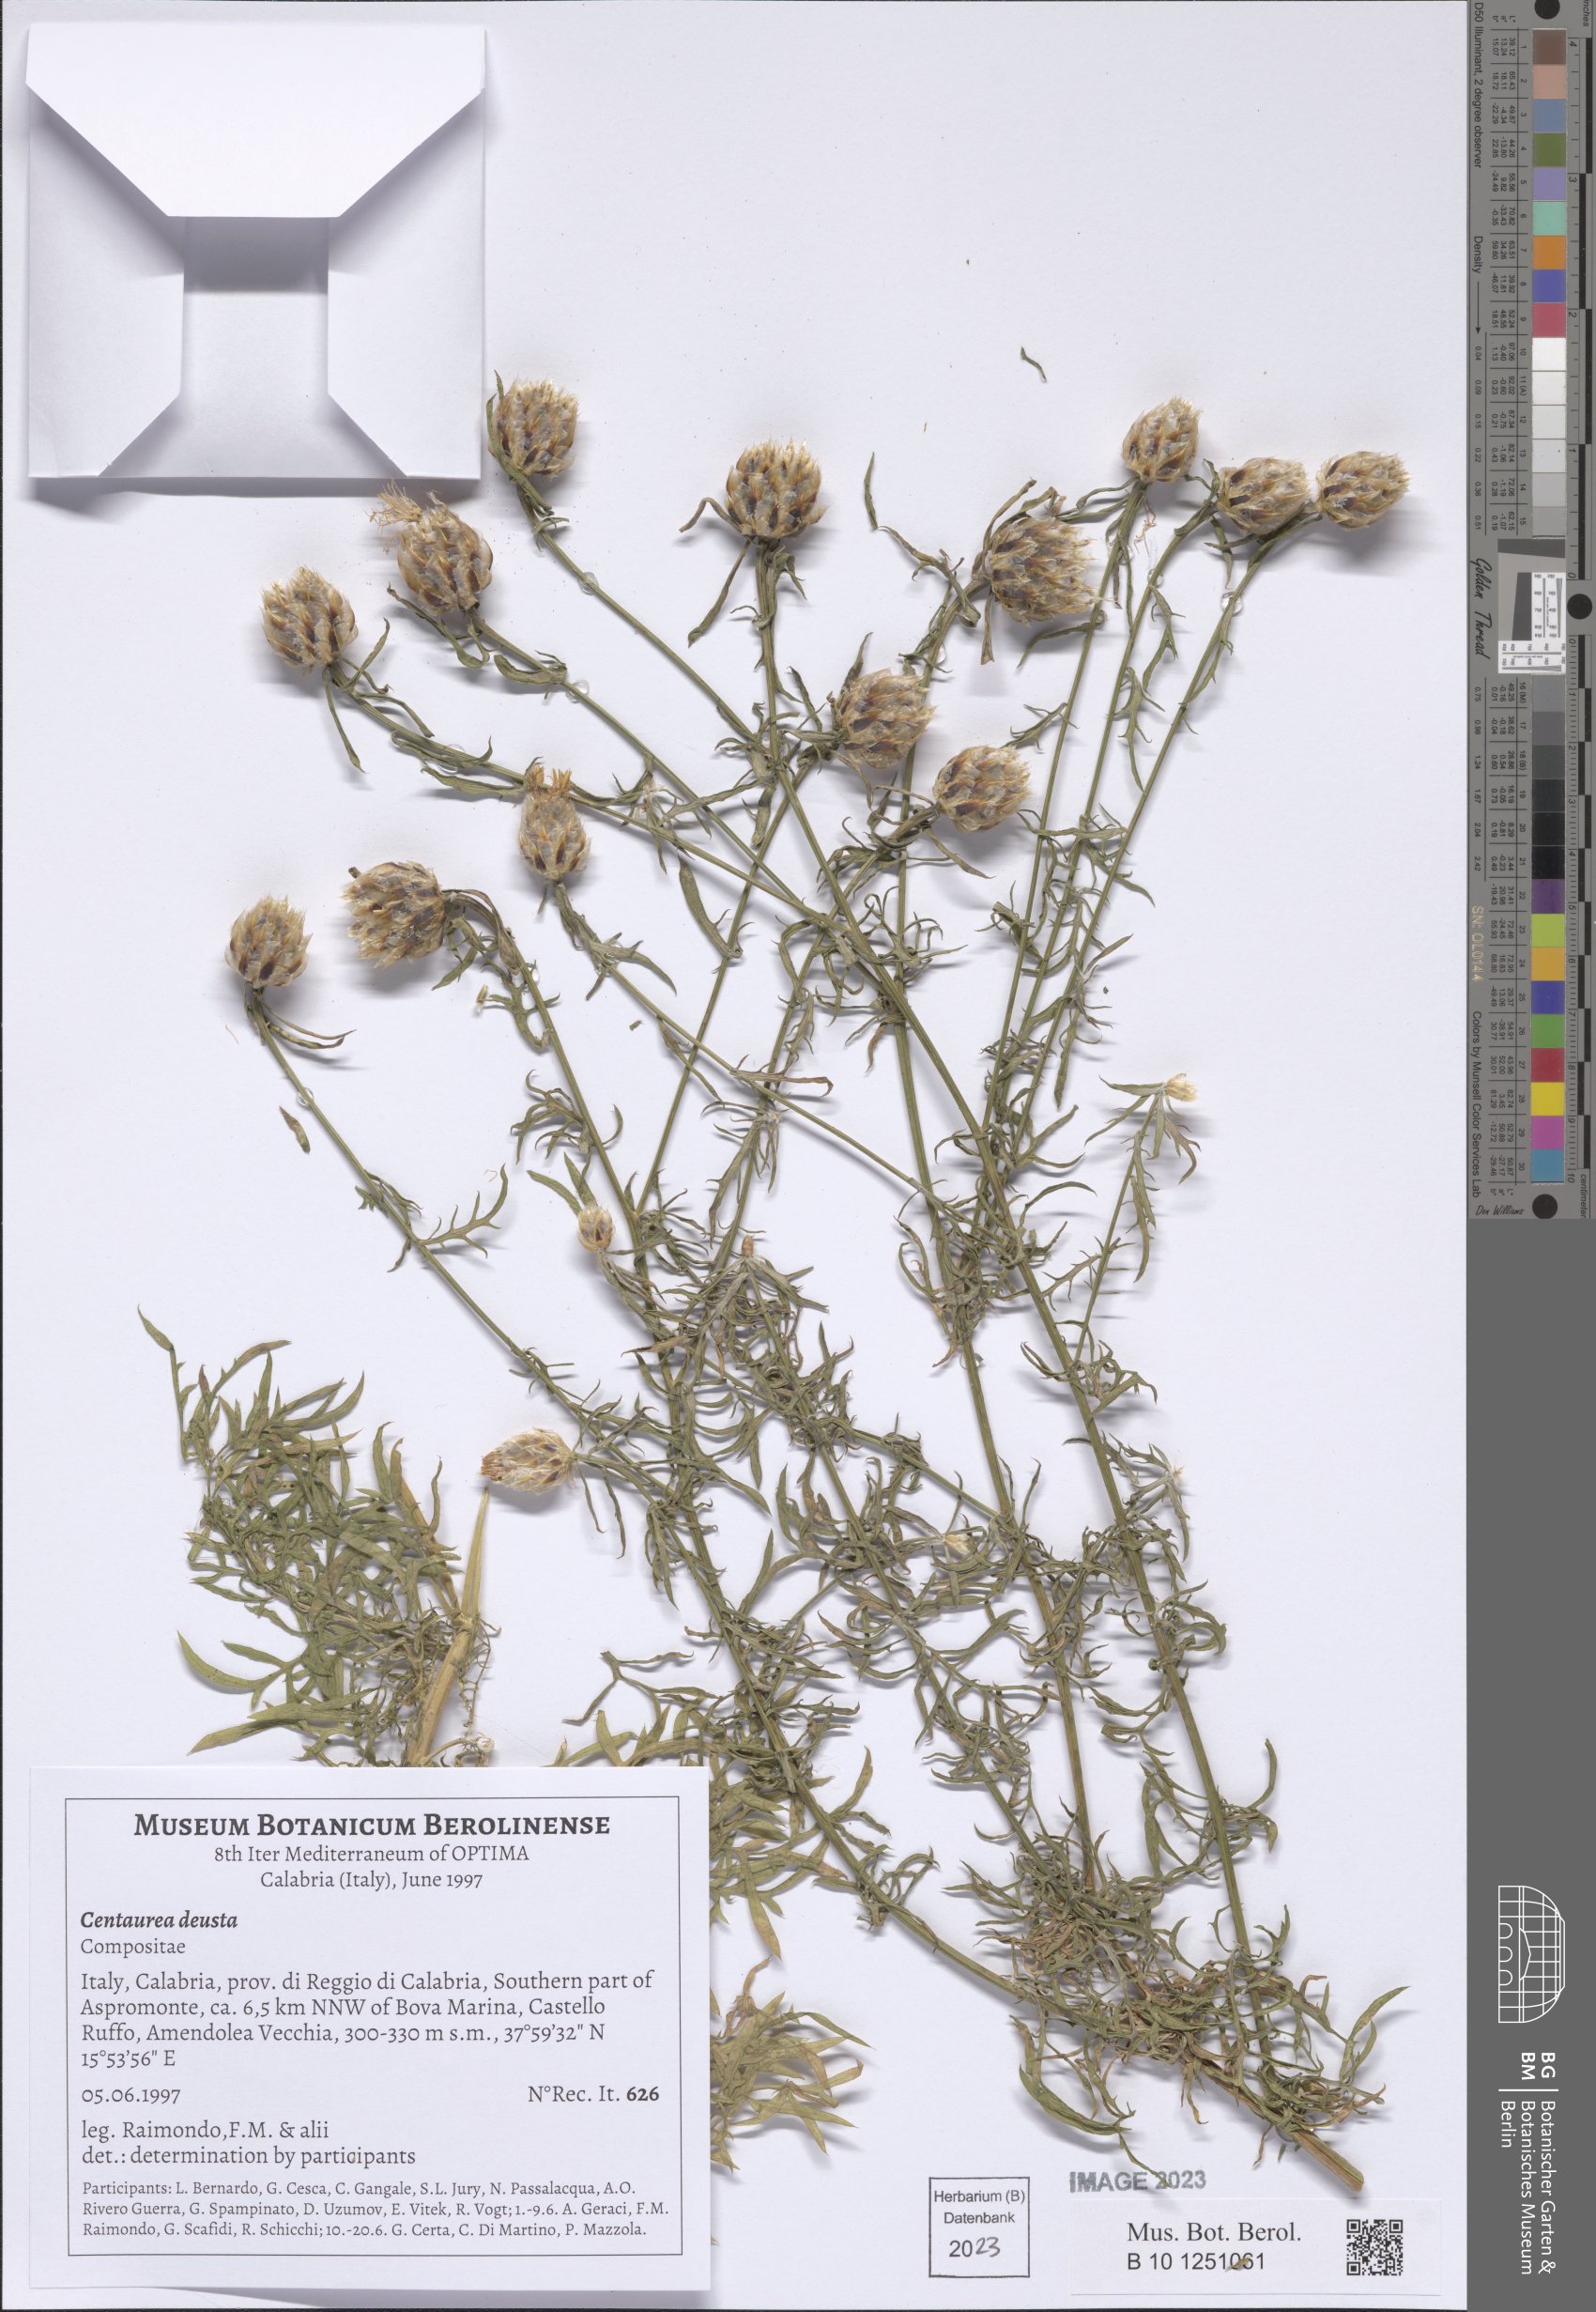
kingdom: Plantae
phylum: Tracheophyta
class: Magnoliopsida
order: Asterales
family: Asteraceae
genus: Centaurea
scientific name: Centaurea deusta
